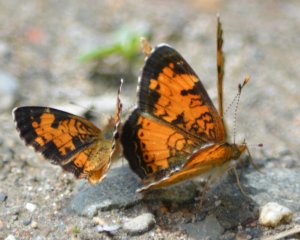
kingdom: Animalia
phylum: Arthropoda
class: Insecta
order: Lepidoptera
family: Nymphalidae
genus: Phyciodes
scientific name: Phyciodes tharos
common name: Northern Crescent
